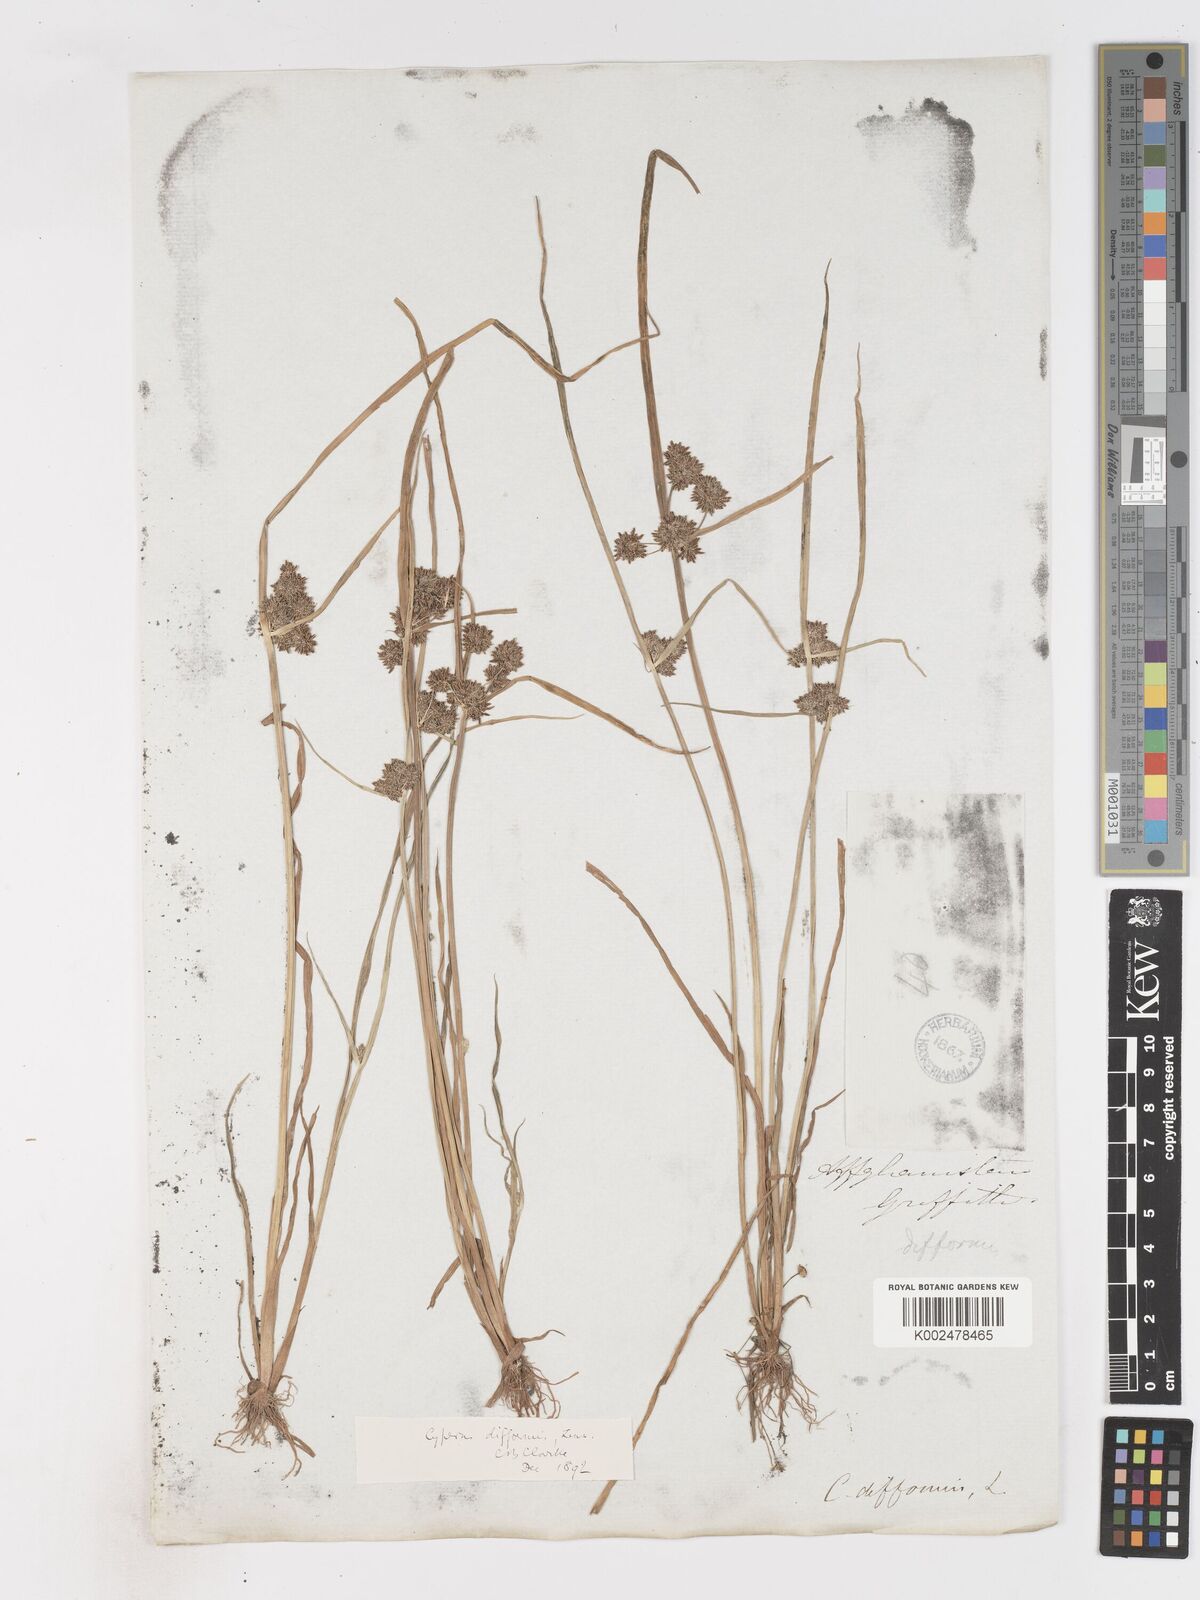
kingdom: Plantae
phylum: Tracheophyta
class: Liliopsida
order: Poales
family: Cyperaceae
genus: Cyperus
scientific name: Cyperus difformis
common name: Variable flatsedge
